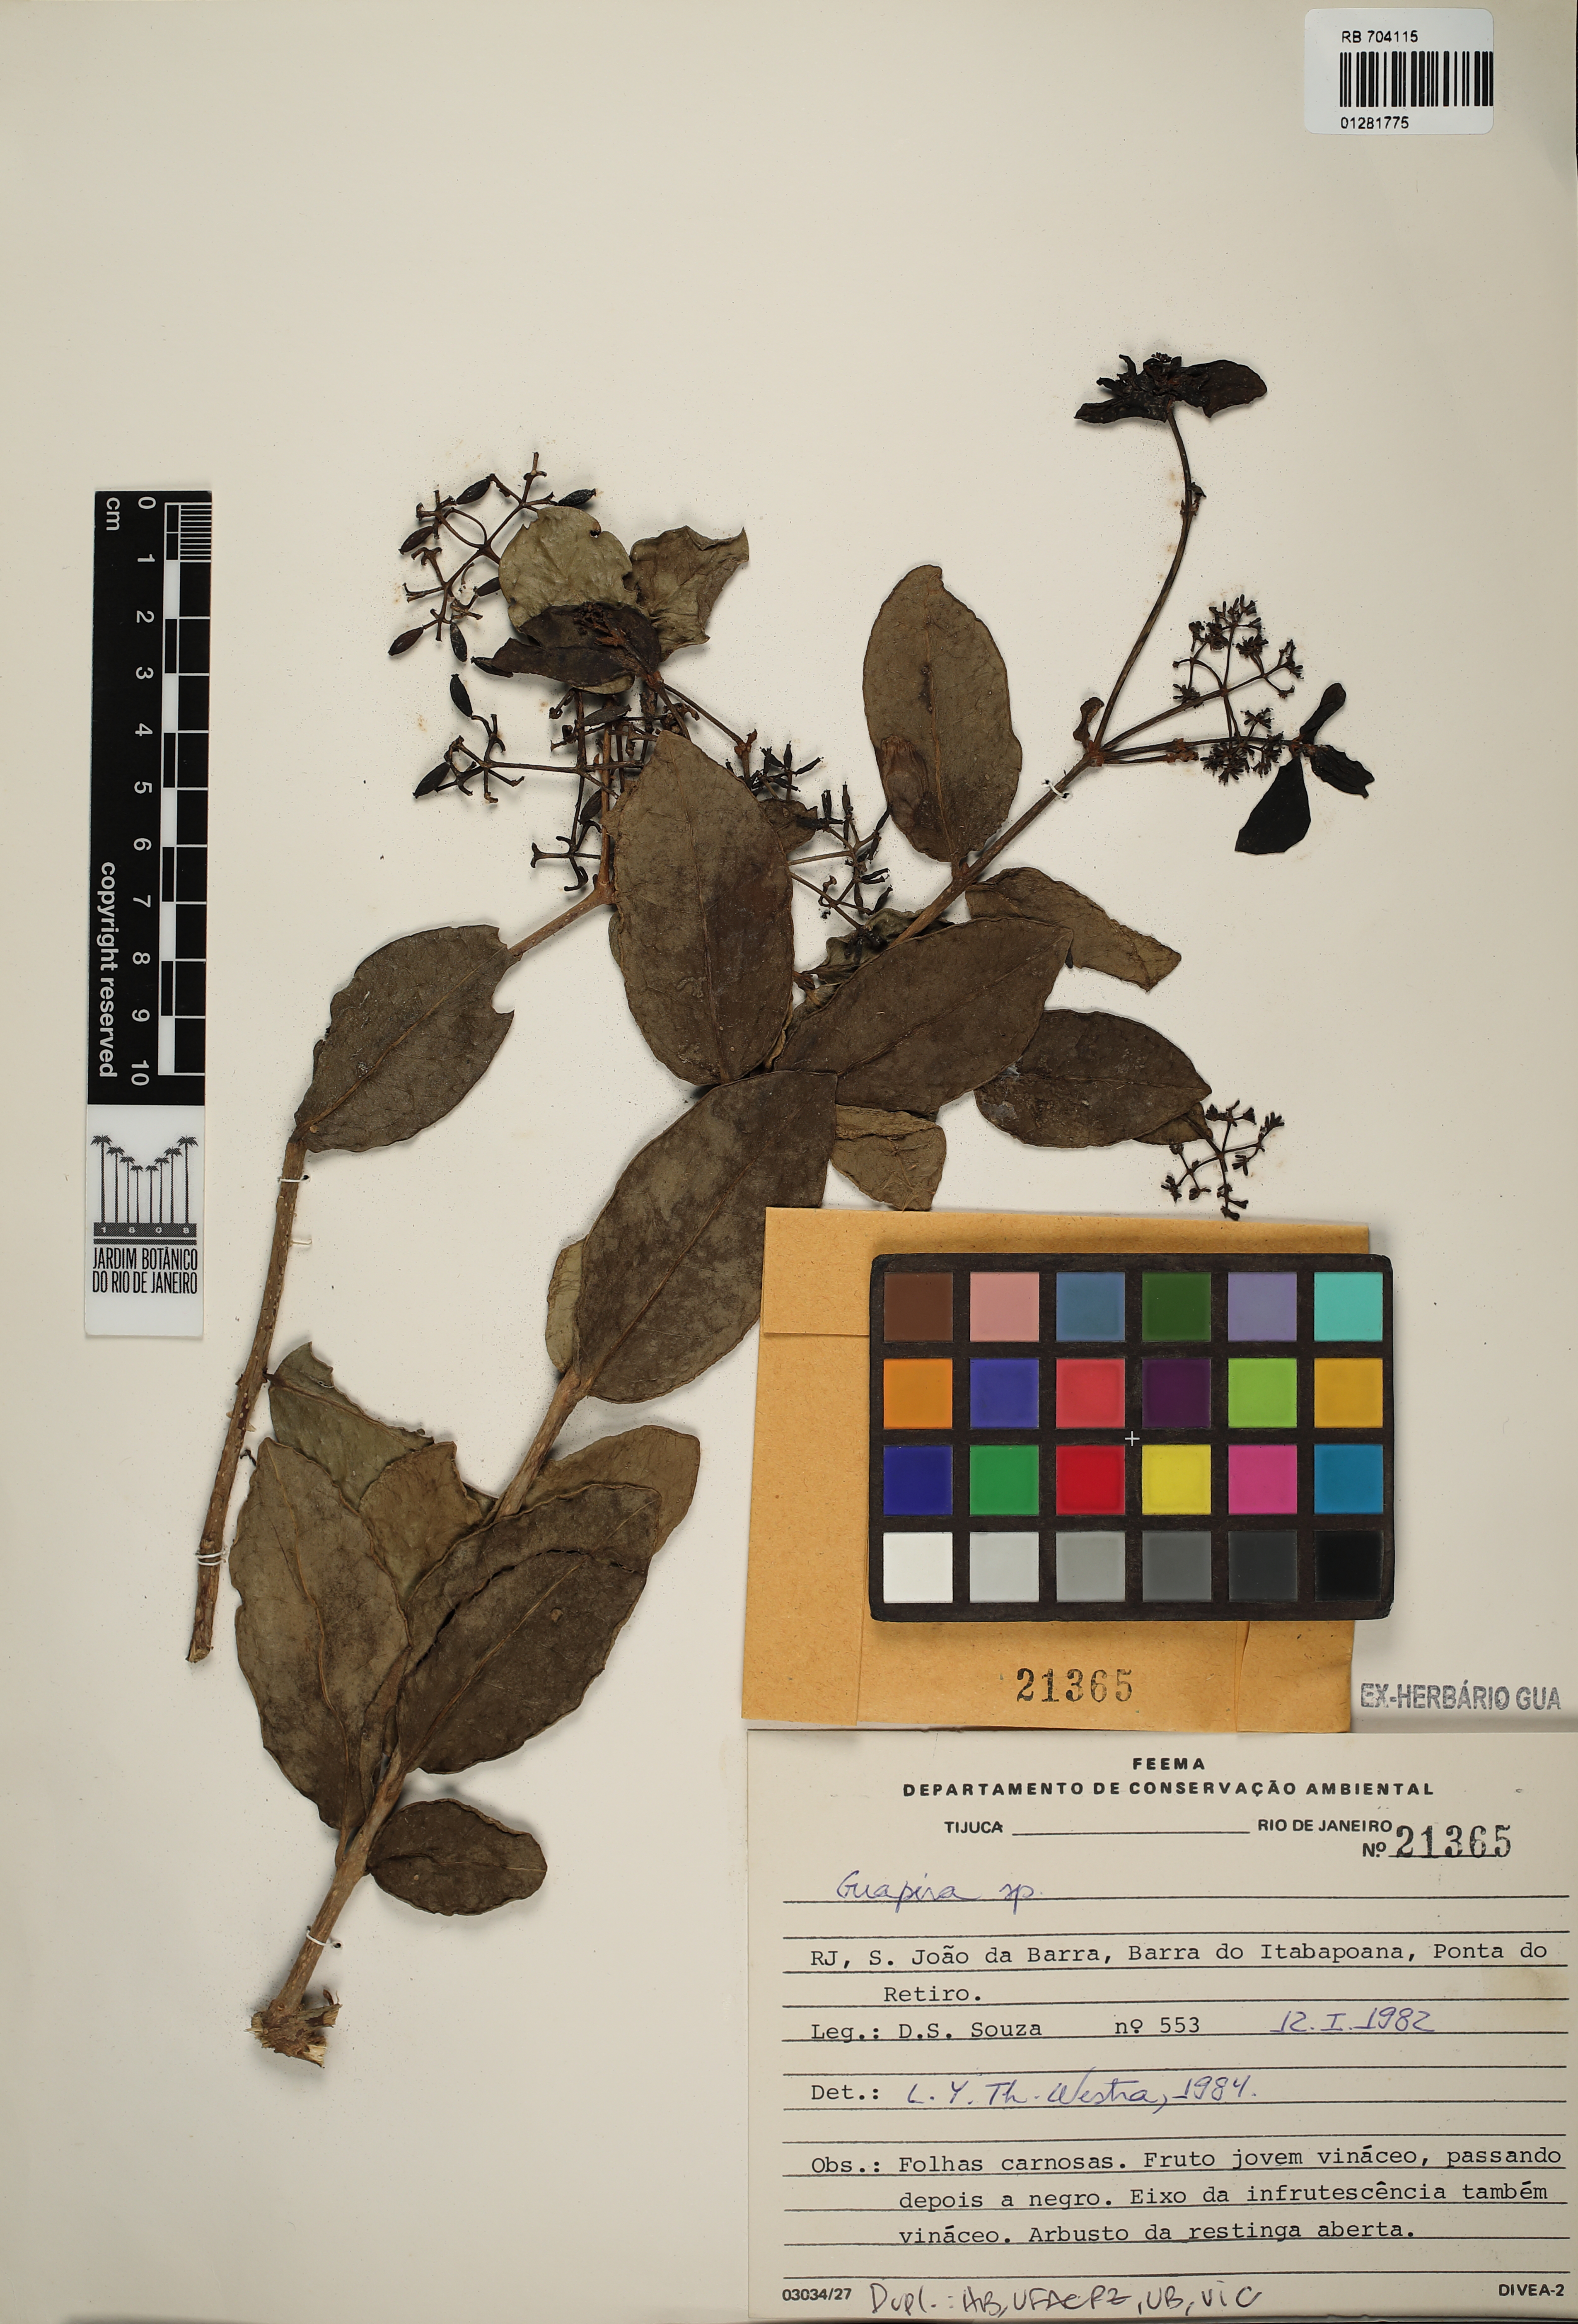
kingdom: Plantae
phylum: Tracheophyta
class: Magnoliopsida
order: Caryophyllales
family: Nyctaginaceae
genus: Guapira
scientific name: Guapira
